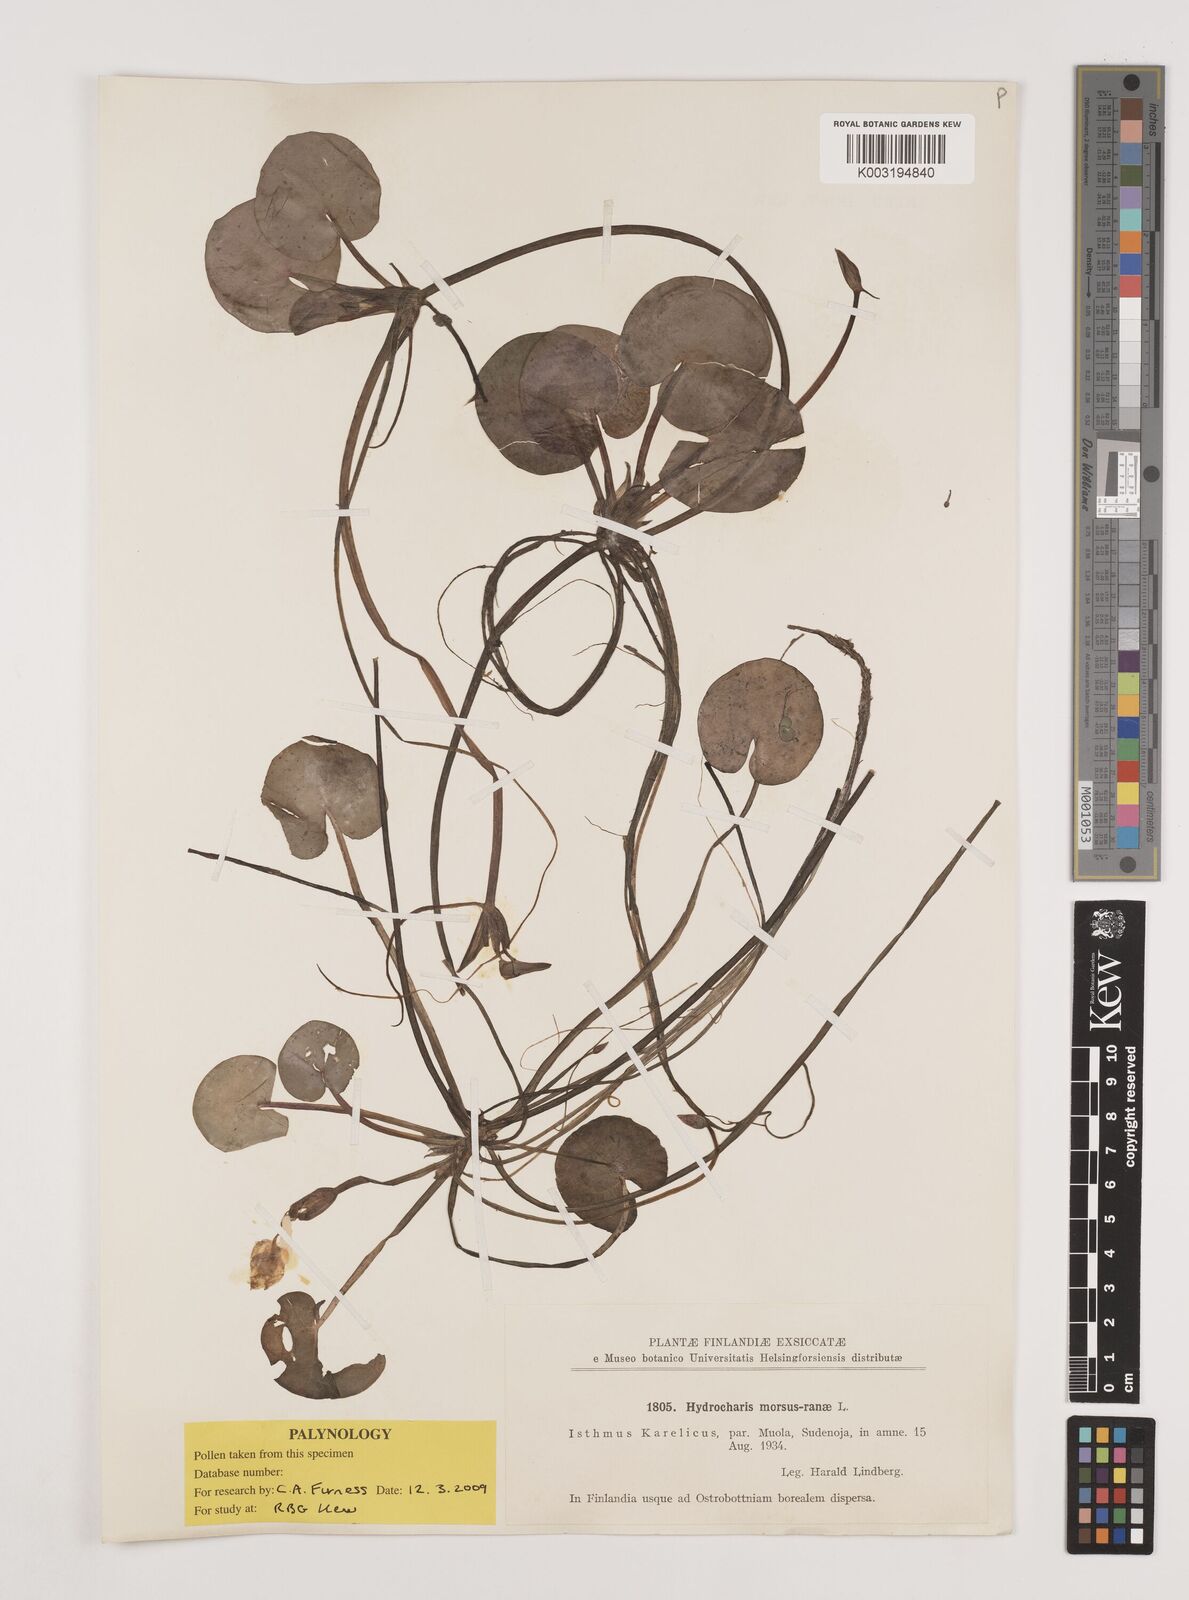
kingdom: Plantae
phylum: Tracheophyta
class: Liliopsida
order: Alismatales
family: Hydrocharitaceae
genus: Hydrocharis
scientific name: Hydrocharis morsus-ranae
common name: Frogbit
